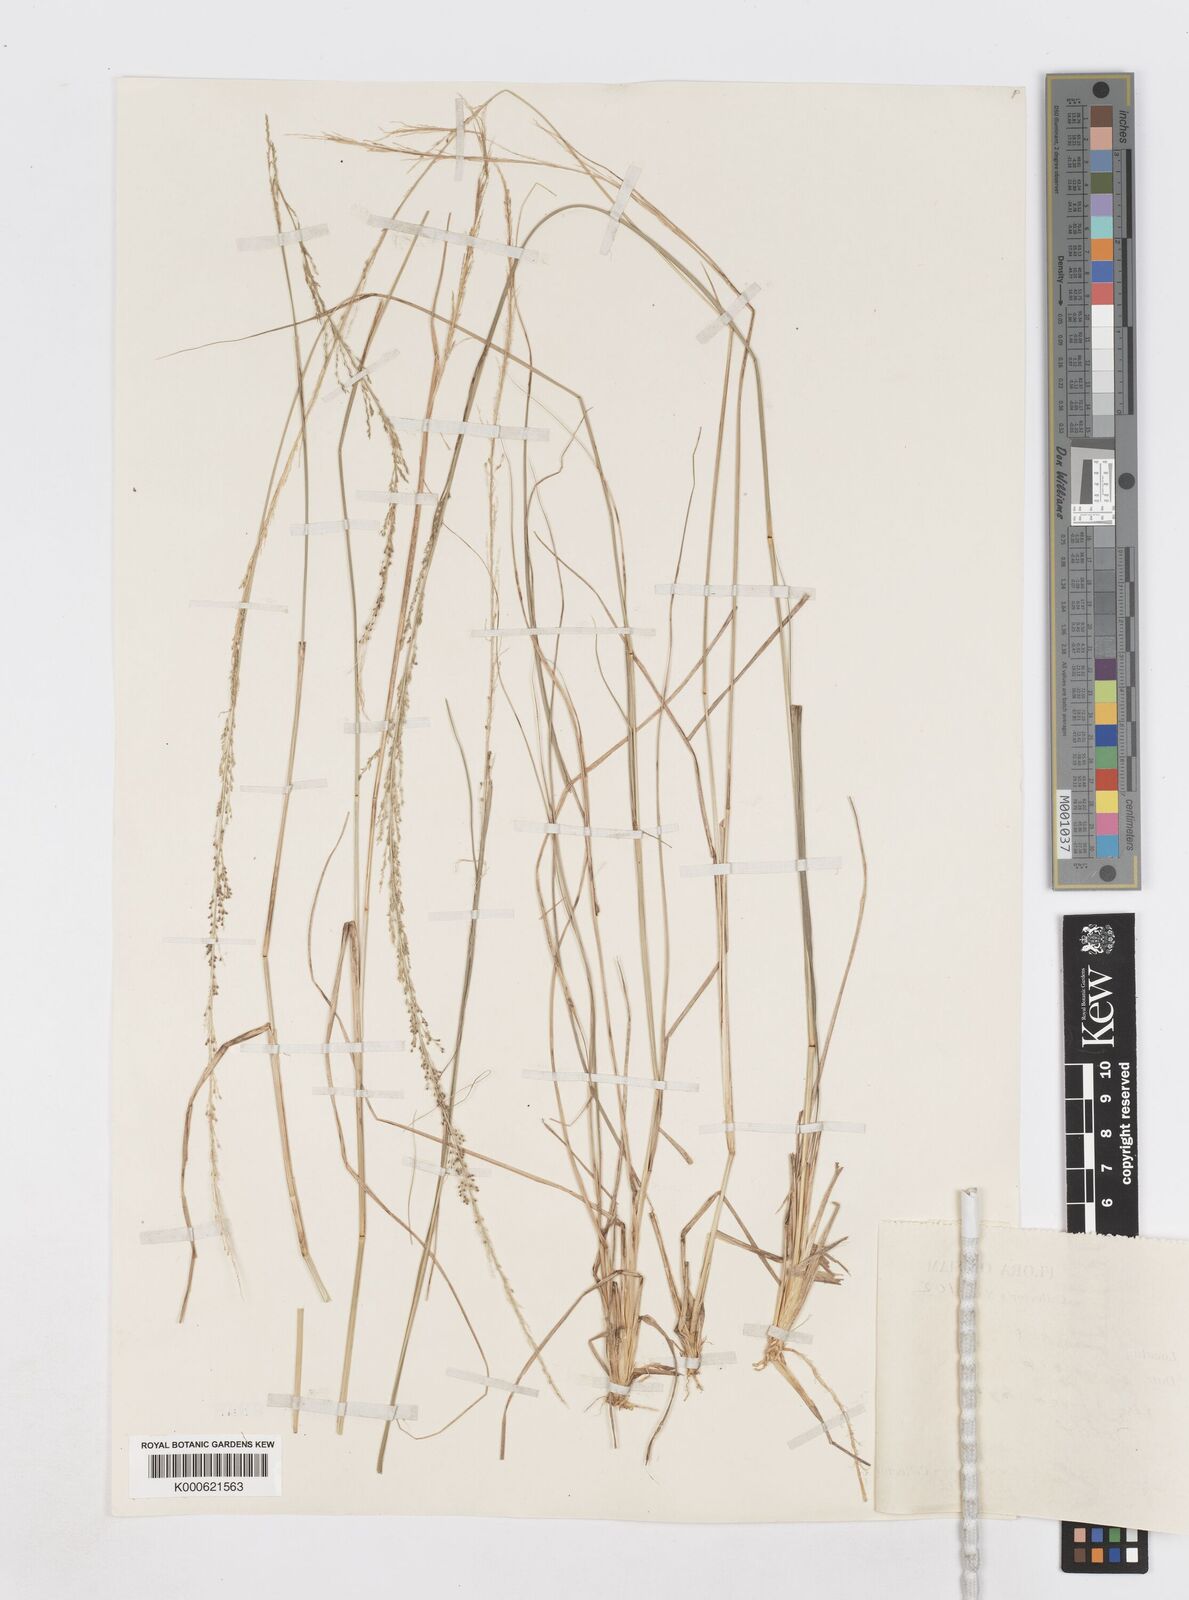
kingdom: Plantae
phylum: Tracheophyta
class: Liliopsida
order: Poales
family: Poaceae
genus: Sporobolus
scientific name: Sporobolus diandrus
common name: Tussock dropseed
